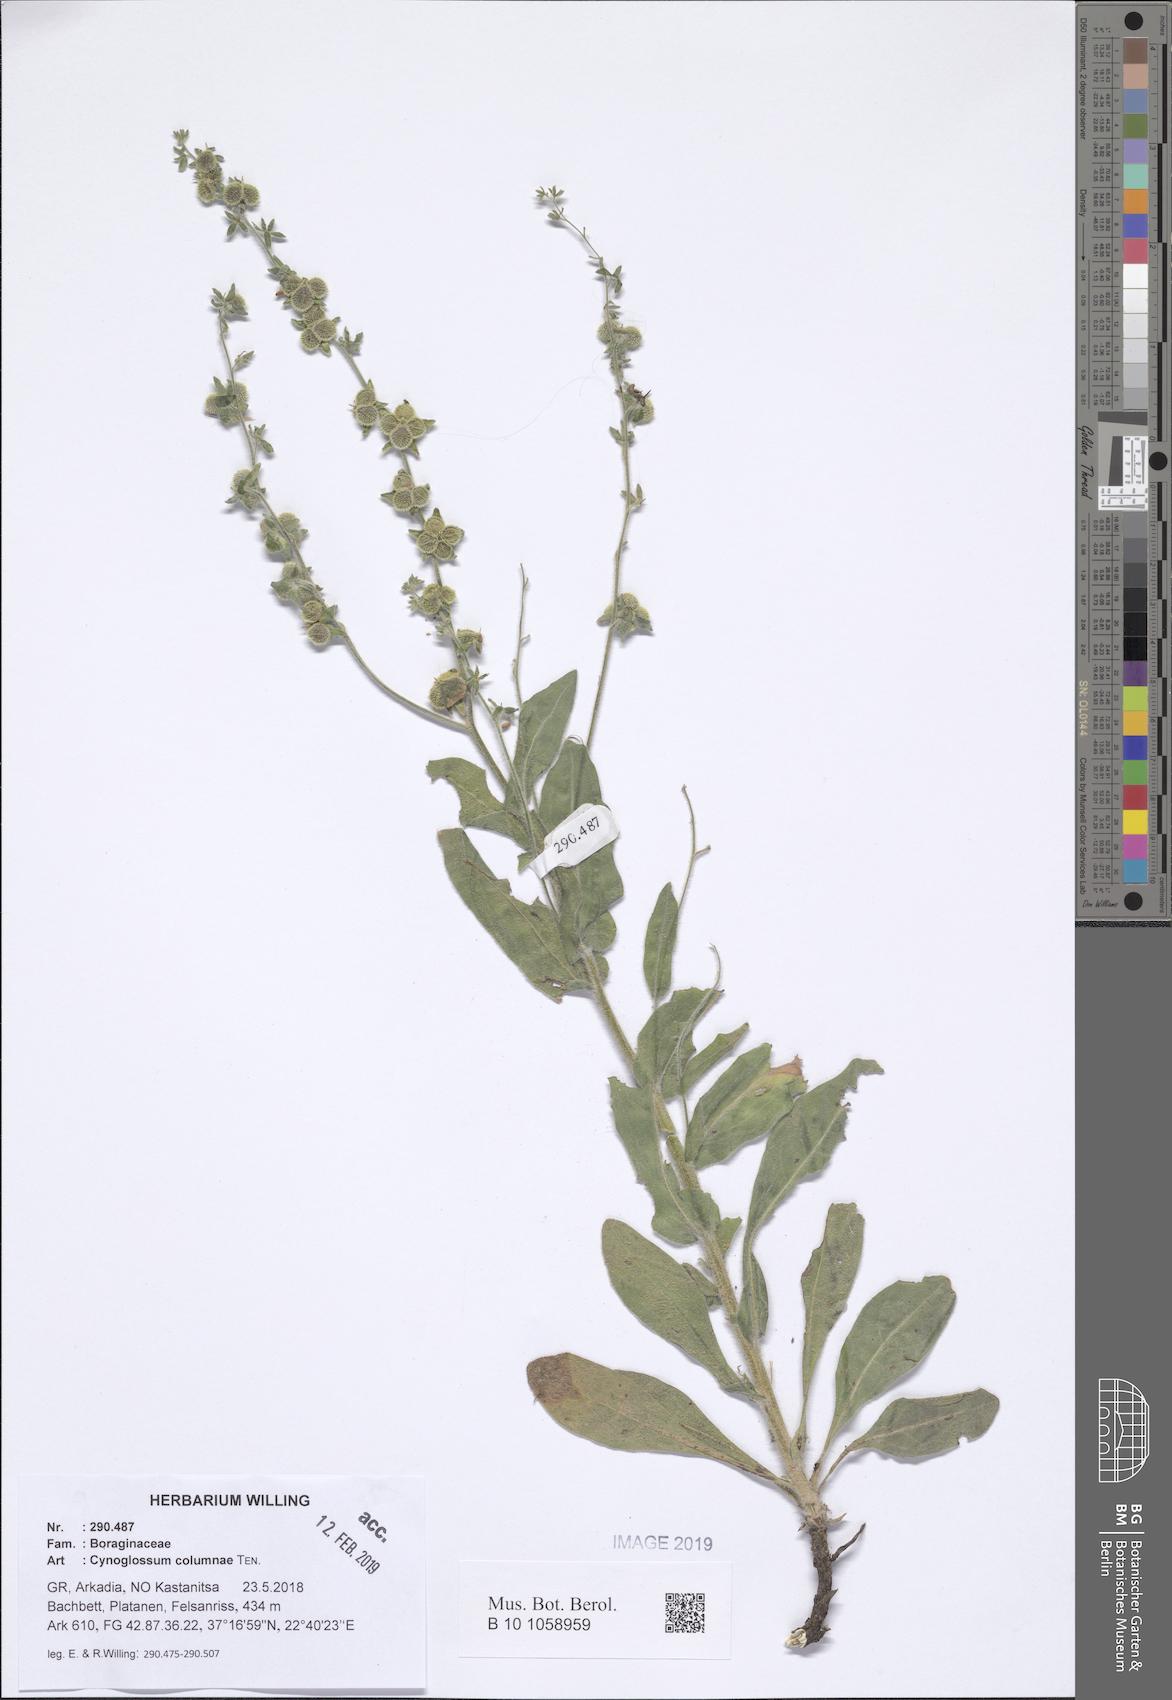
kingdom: Plantae
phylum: Tracheophyta
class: Magnoliopsida
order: Boraginales
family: Boraginaceae
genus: Rindera
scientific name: Rindera columnae
